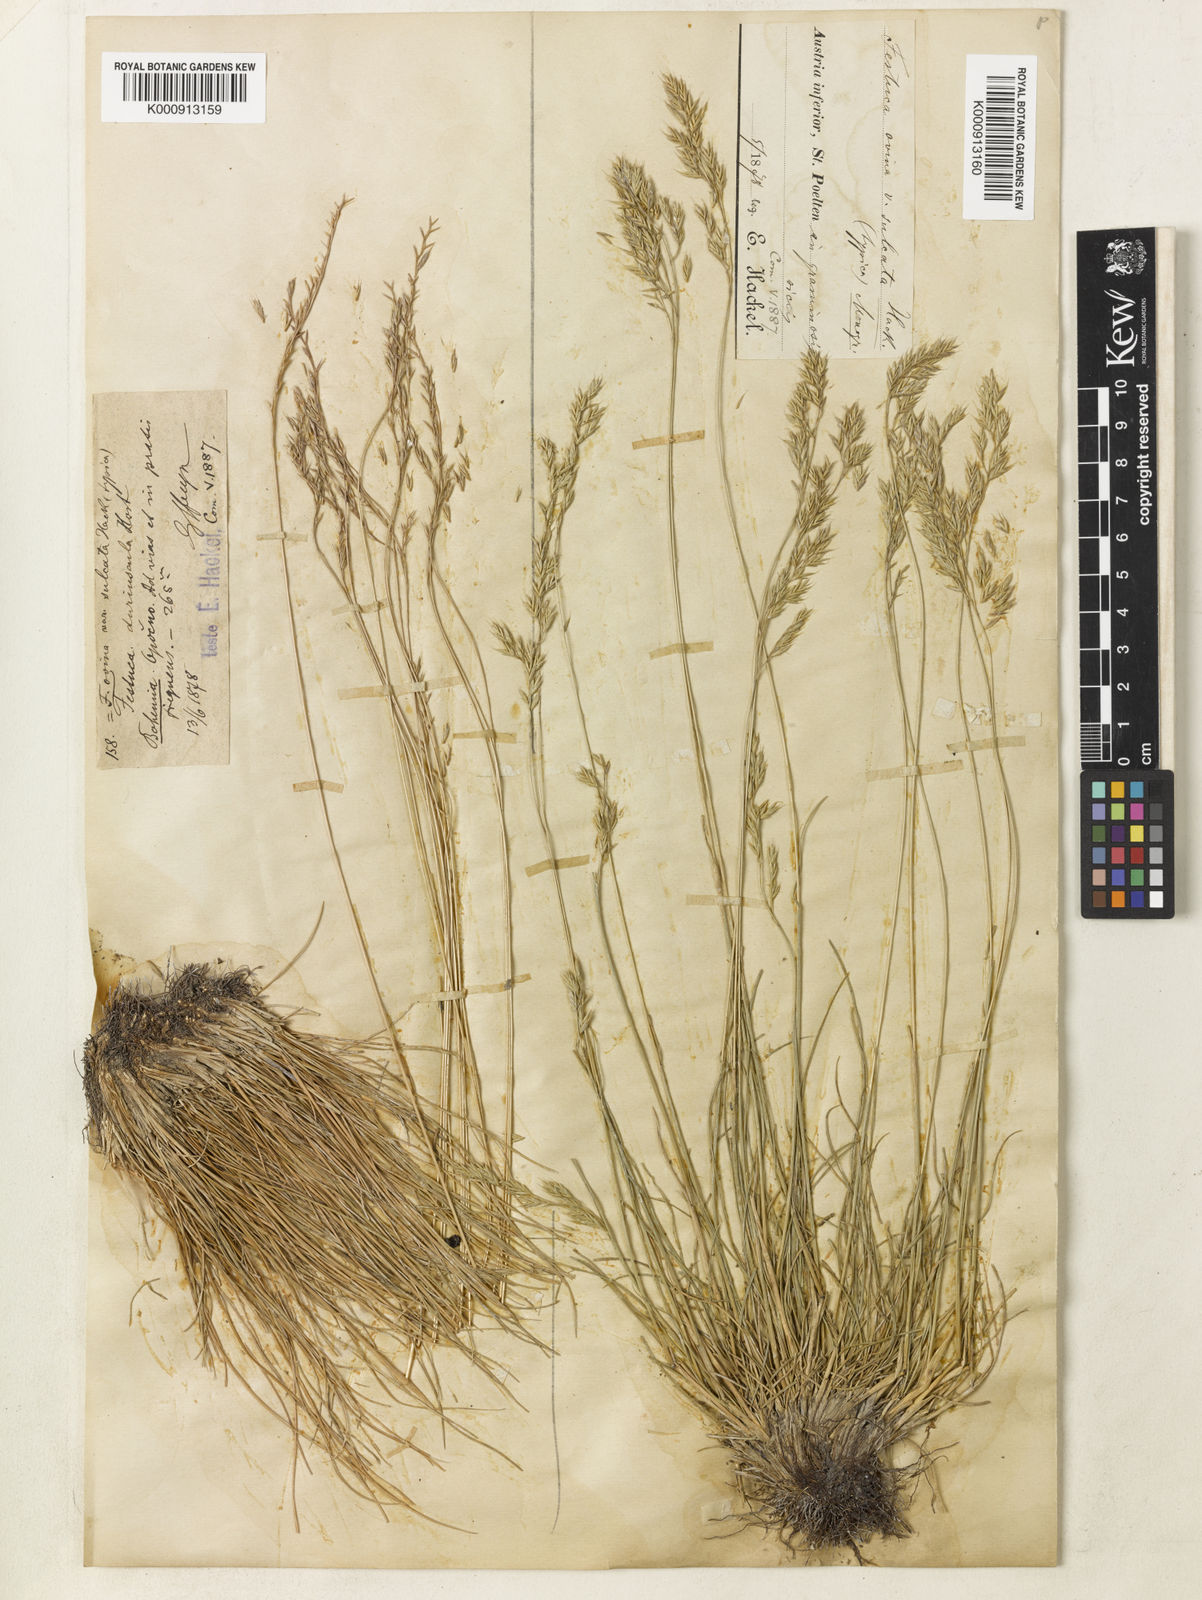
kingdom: Plantae
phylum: Tracheophyta
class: Liliopsida
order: Poales
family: Poaceae
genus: Festuca
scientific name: Festuca rupicola
